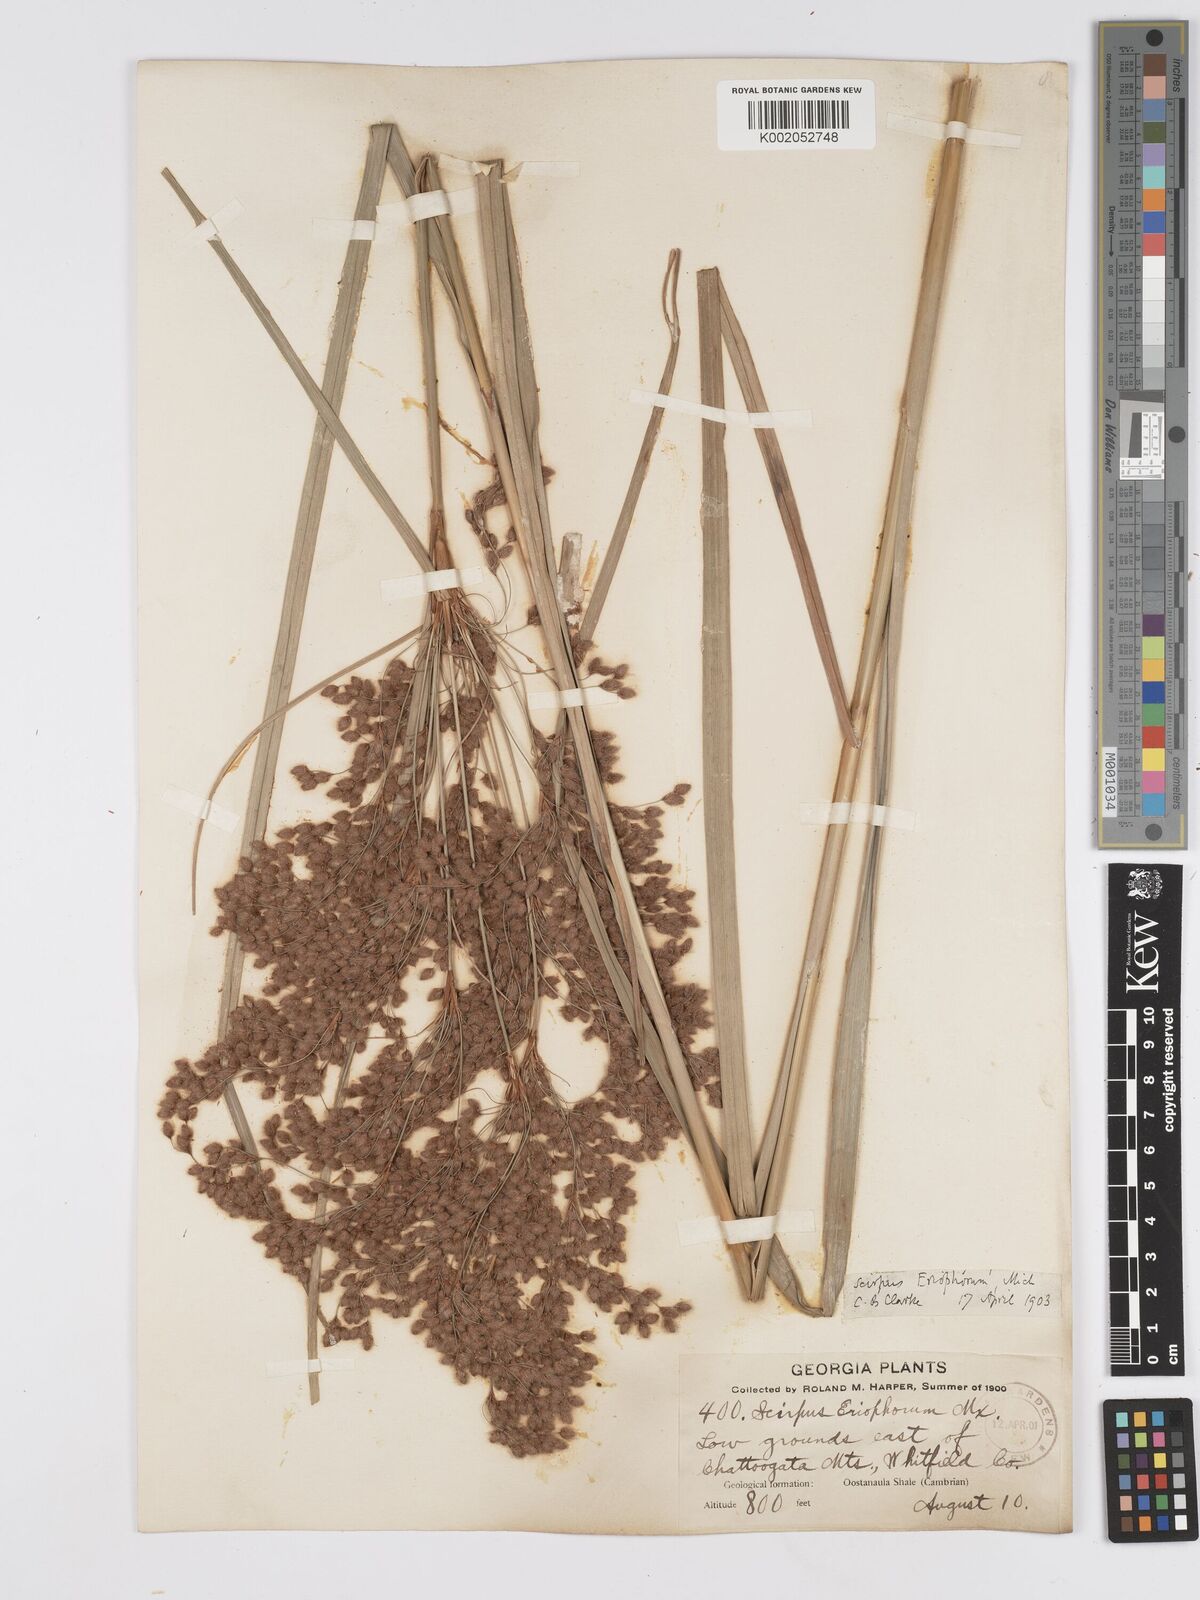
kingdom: Plantae
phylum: Tracheophyta
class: Liliopsida
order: Poales
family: Cyperaceae
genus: Scirpus
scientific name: Scirpus cyperinus
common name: Black-sheathed bulrush
